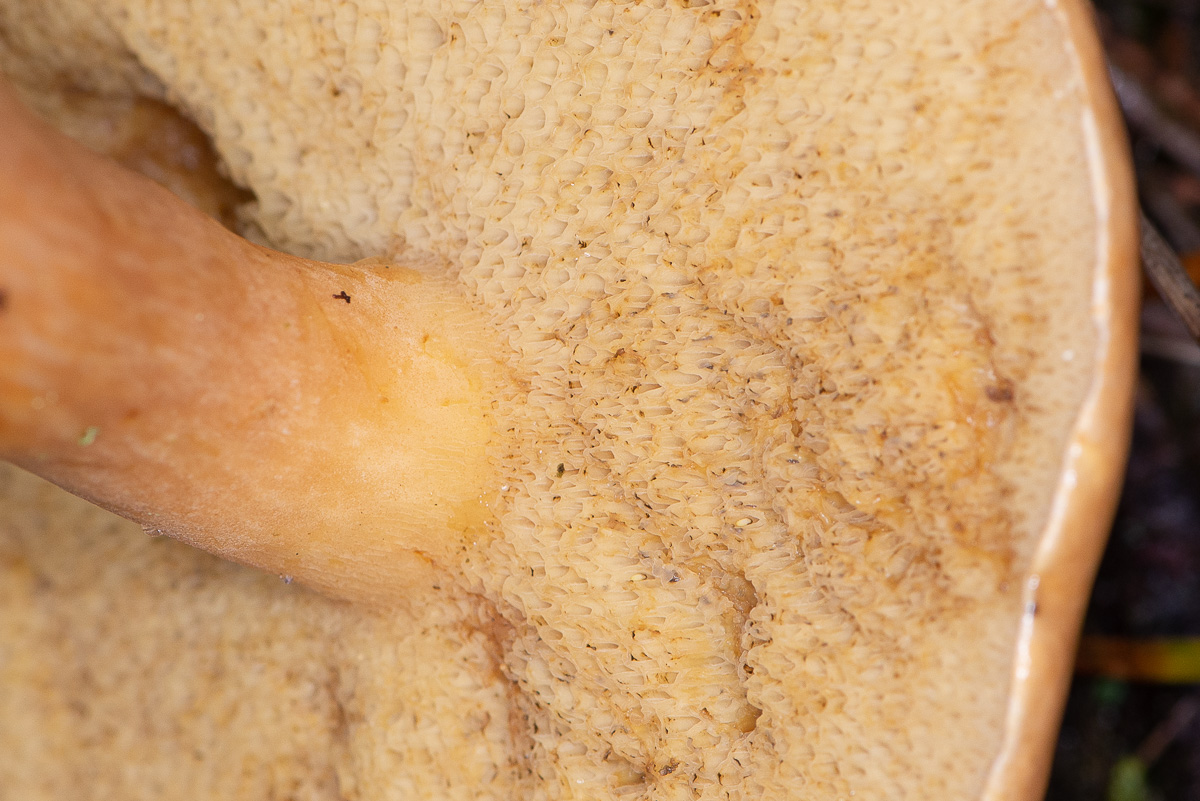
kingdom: Fungi
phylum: Basidiomycota
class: Agaricomycetes
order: Boletales
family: Suillaceae
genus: Suillus
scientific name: Suillus bovinus
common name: grovporet slimrørhat
